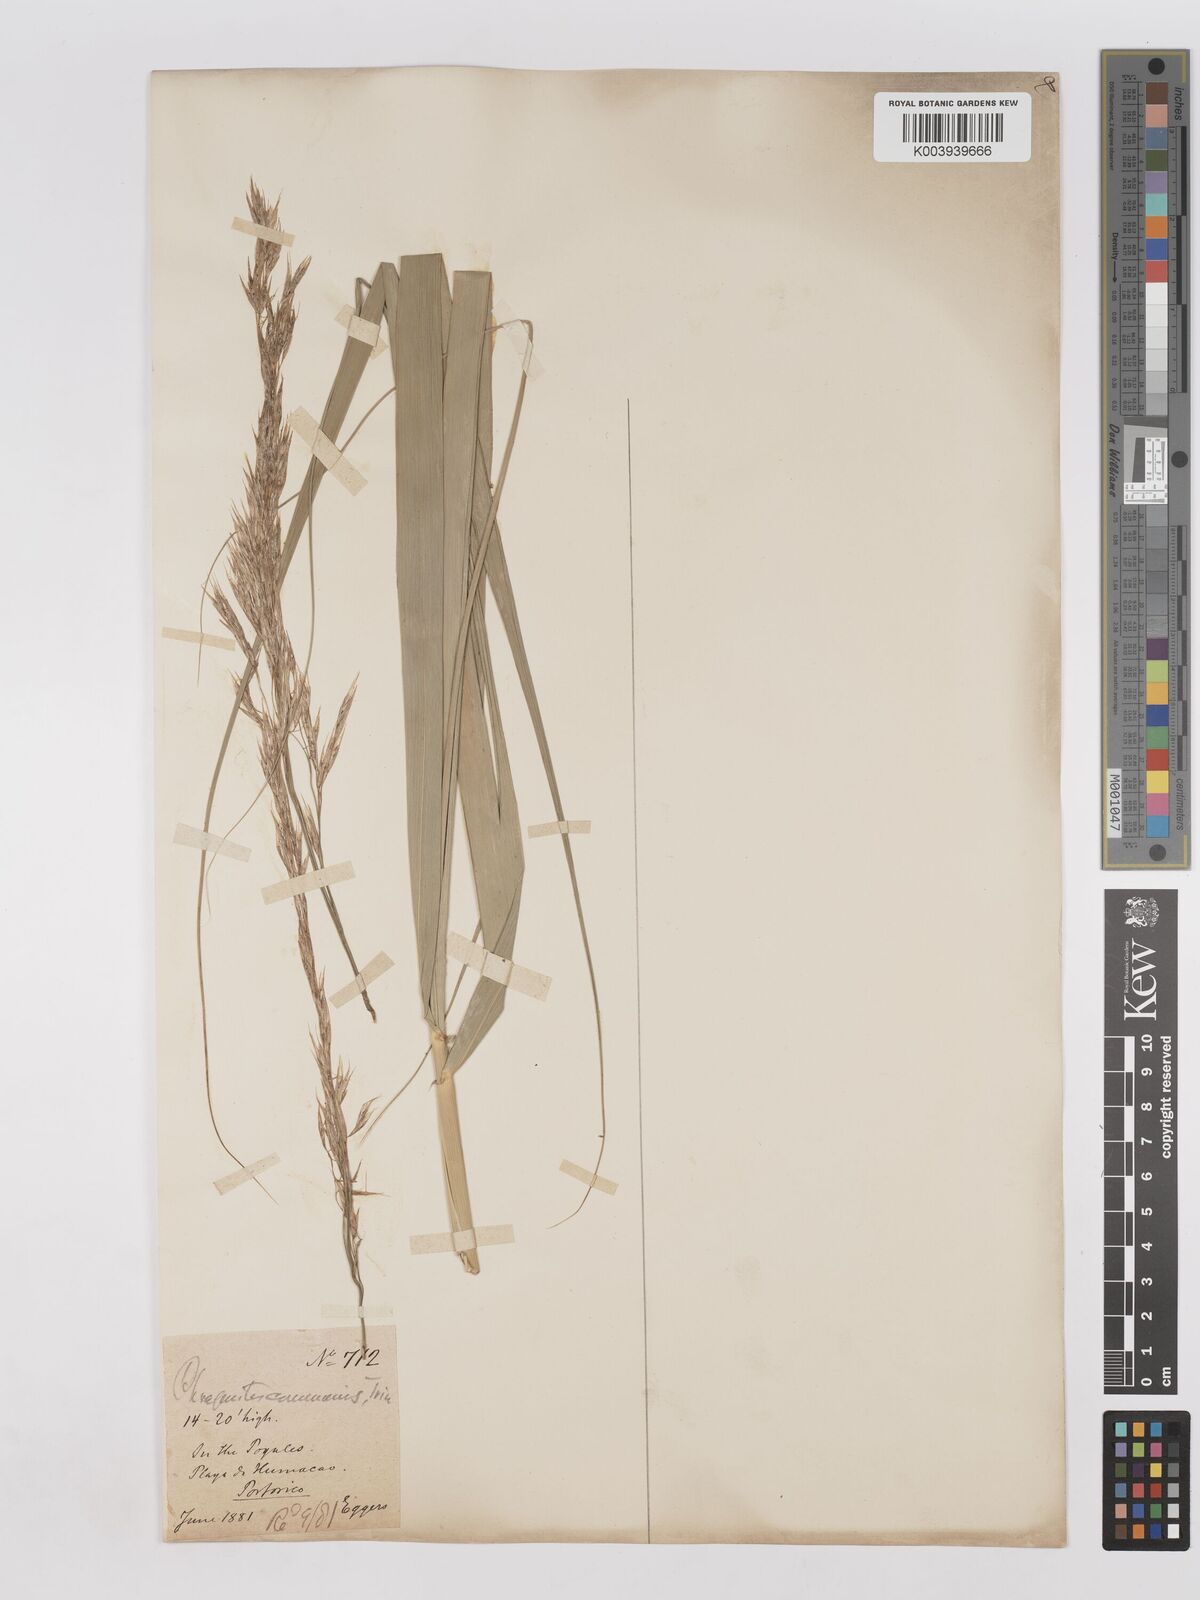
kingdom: Plantae
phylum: Tracheophyta
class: Liliopsida
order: Poales
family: Poaceae
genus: Phragmites
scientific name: Phragmites australis
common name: Common reed
